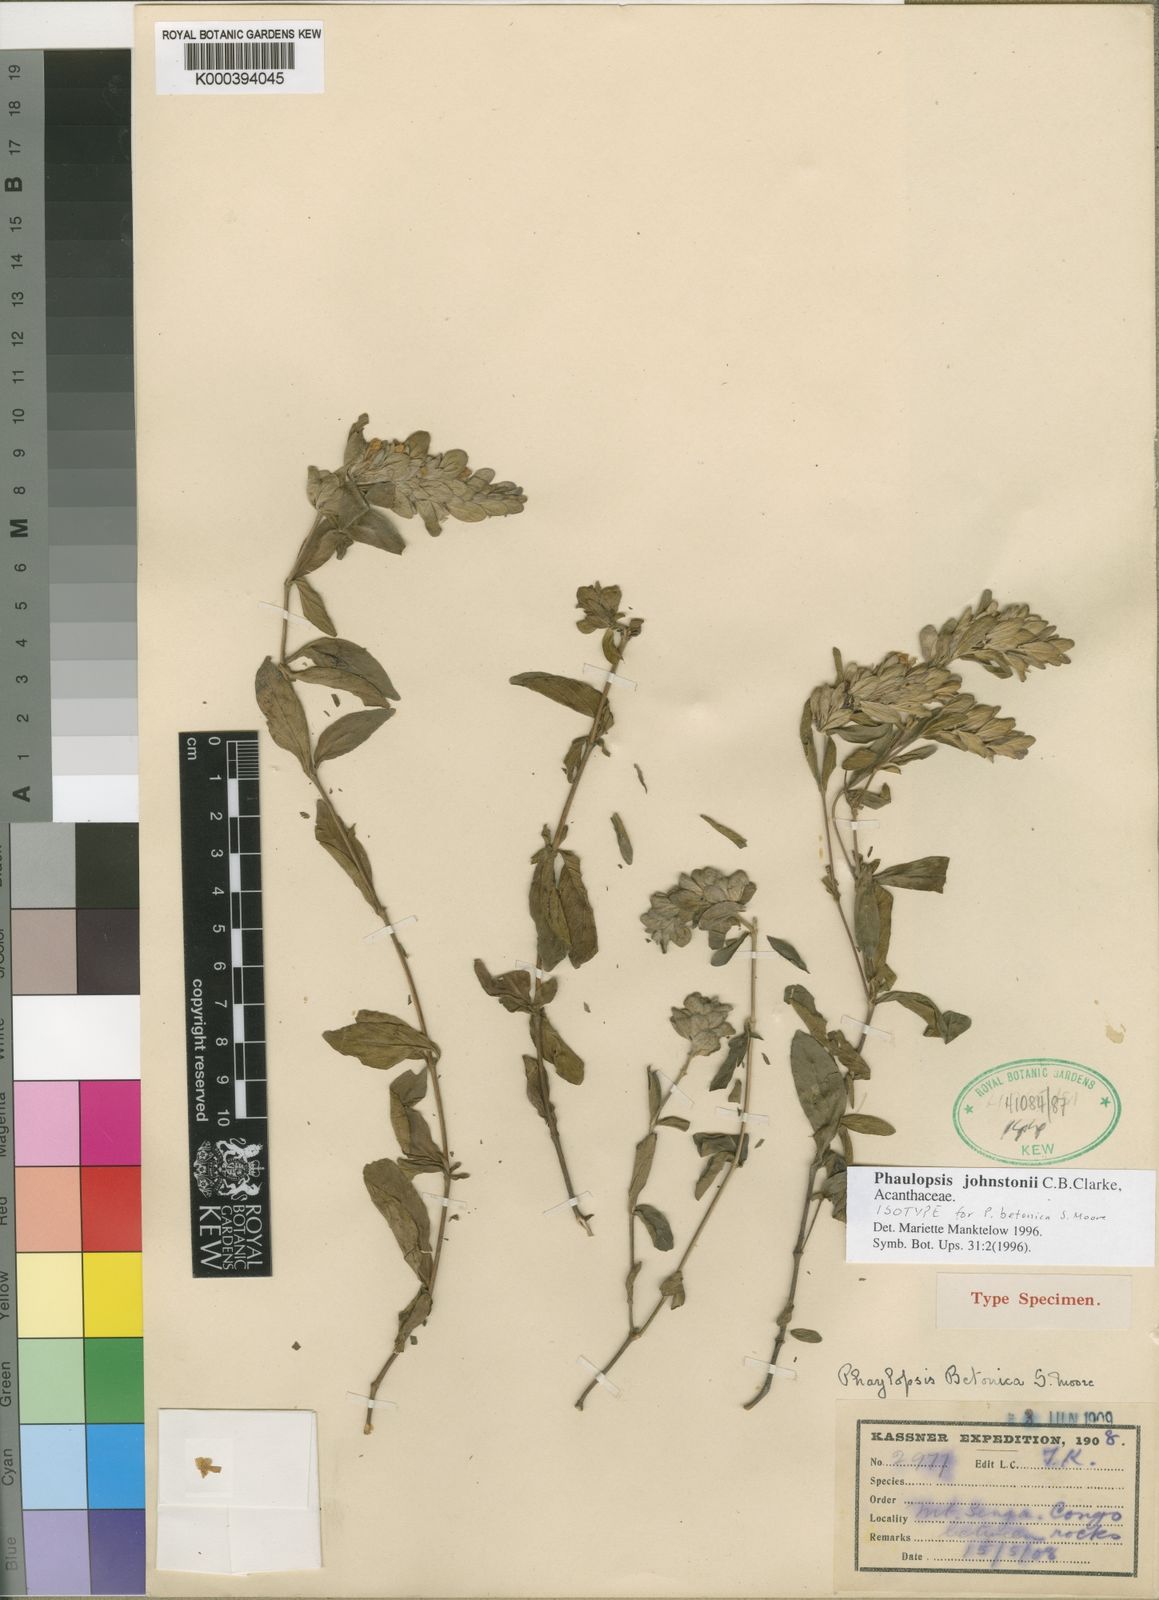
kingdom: Plantae
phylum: Tracheophyta
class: Magnoliopsida
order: Lamiales
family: Acanthaceae
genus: Phaulopsis
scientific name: Phaulopsis johnstonii
